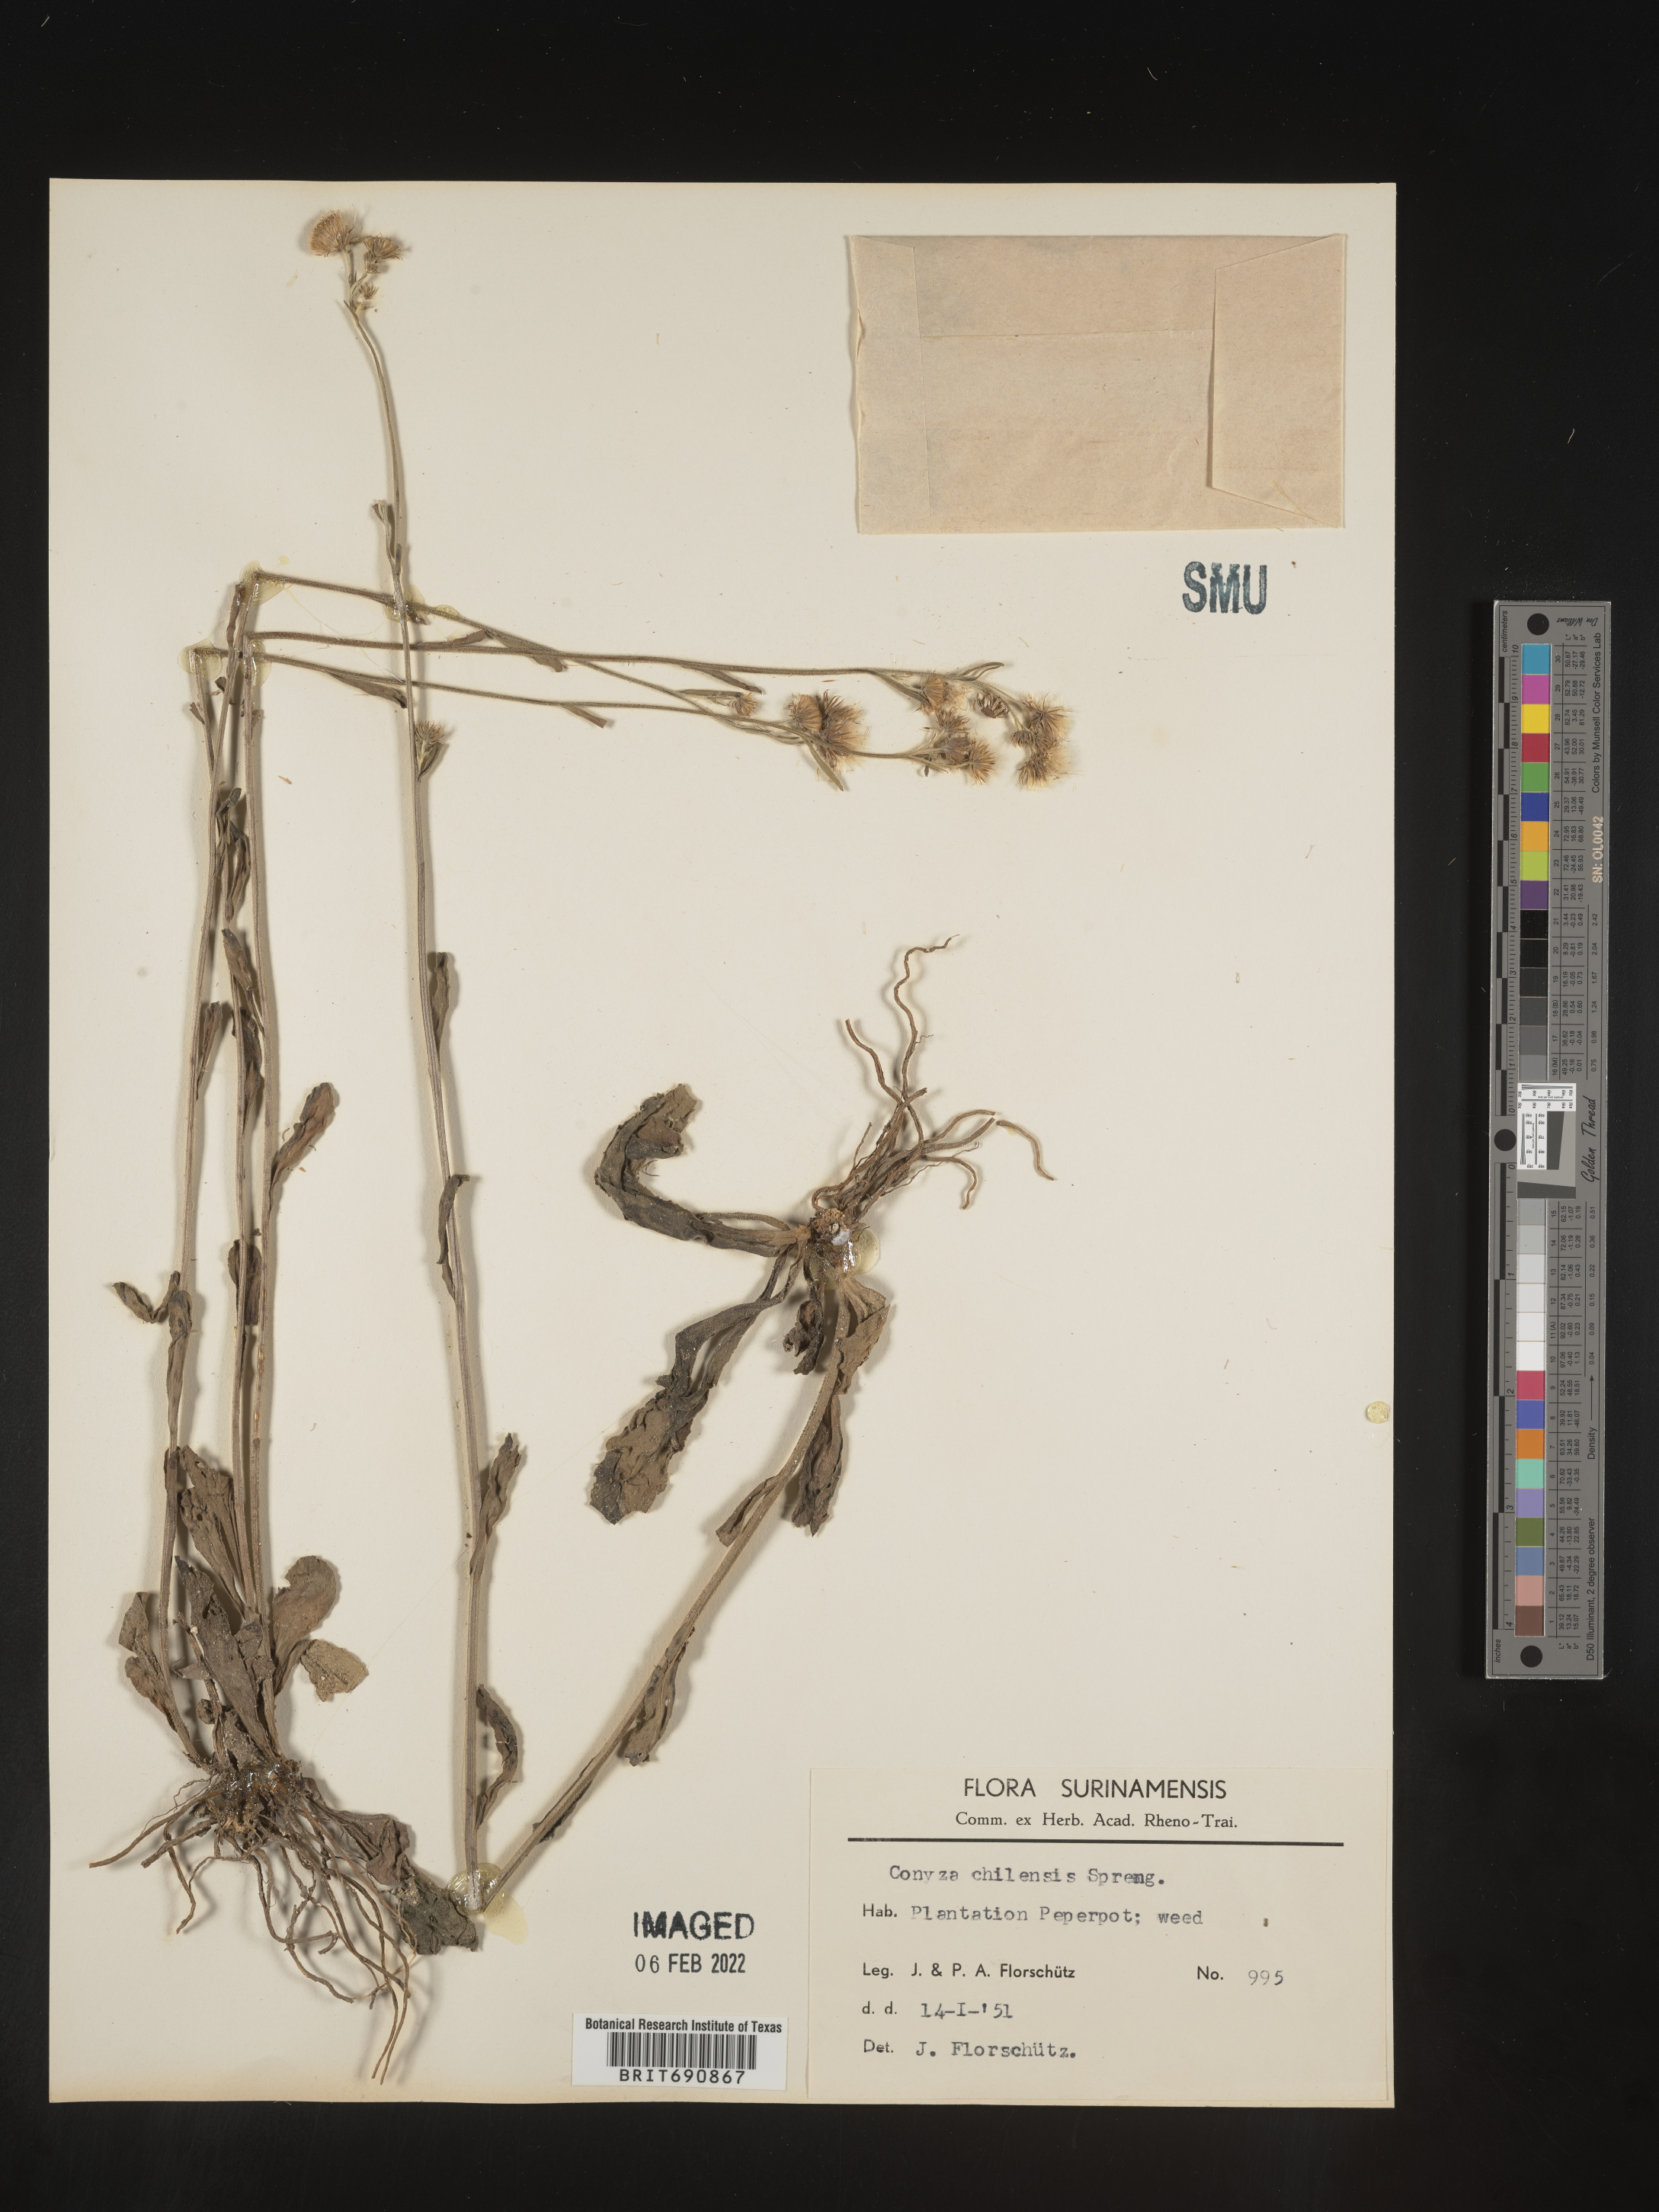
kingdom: Plantae
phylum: Tracheophyta
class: Magnoliopsida
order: Asterales
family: Asteraceae
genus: Conyza
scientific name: Conyza
